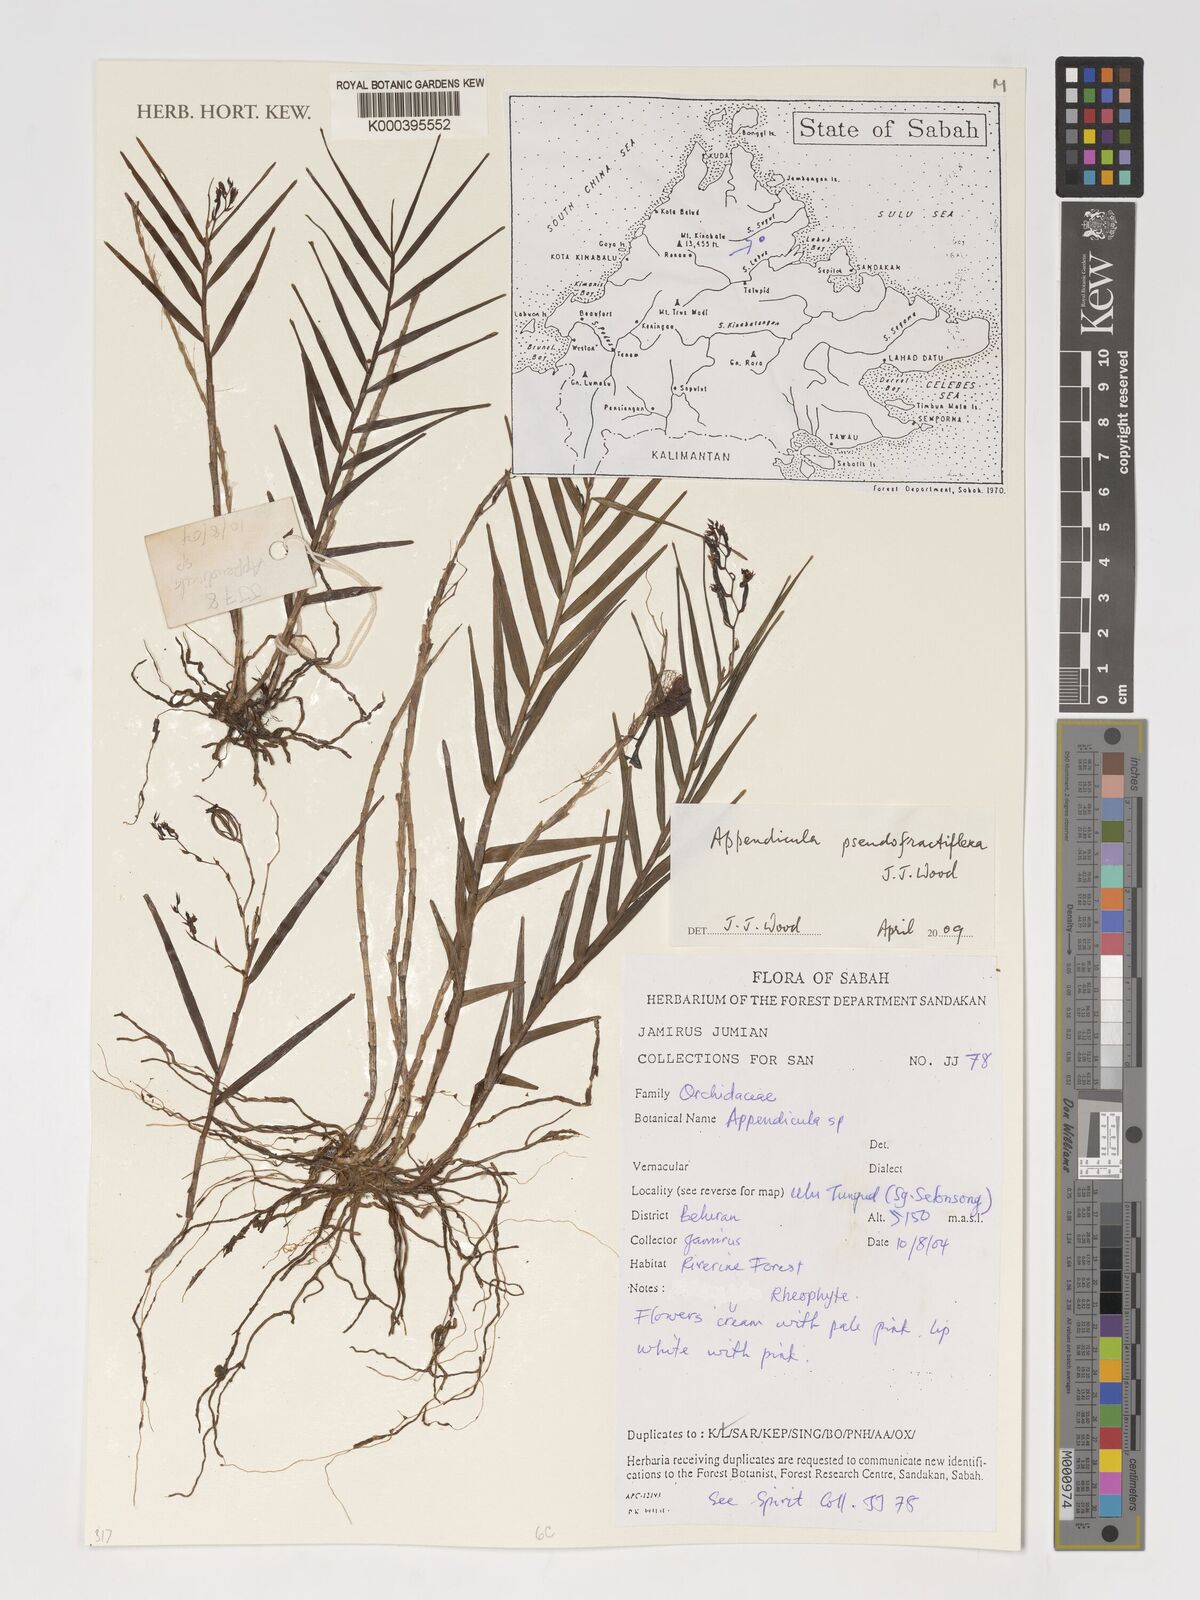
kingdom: Plantae
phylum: Tracheophyta
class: Liliopsida
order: Asparagales
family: Orchidaceae
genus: Appendicula
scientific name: Appendicula pseudofractiflexa
